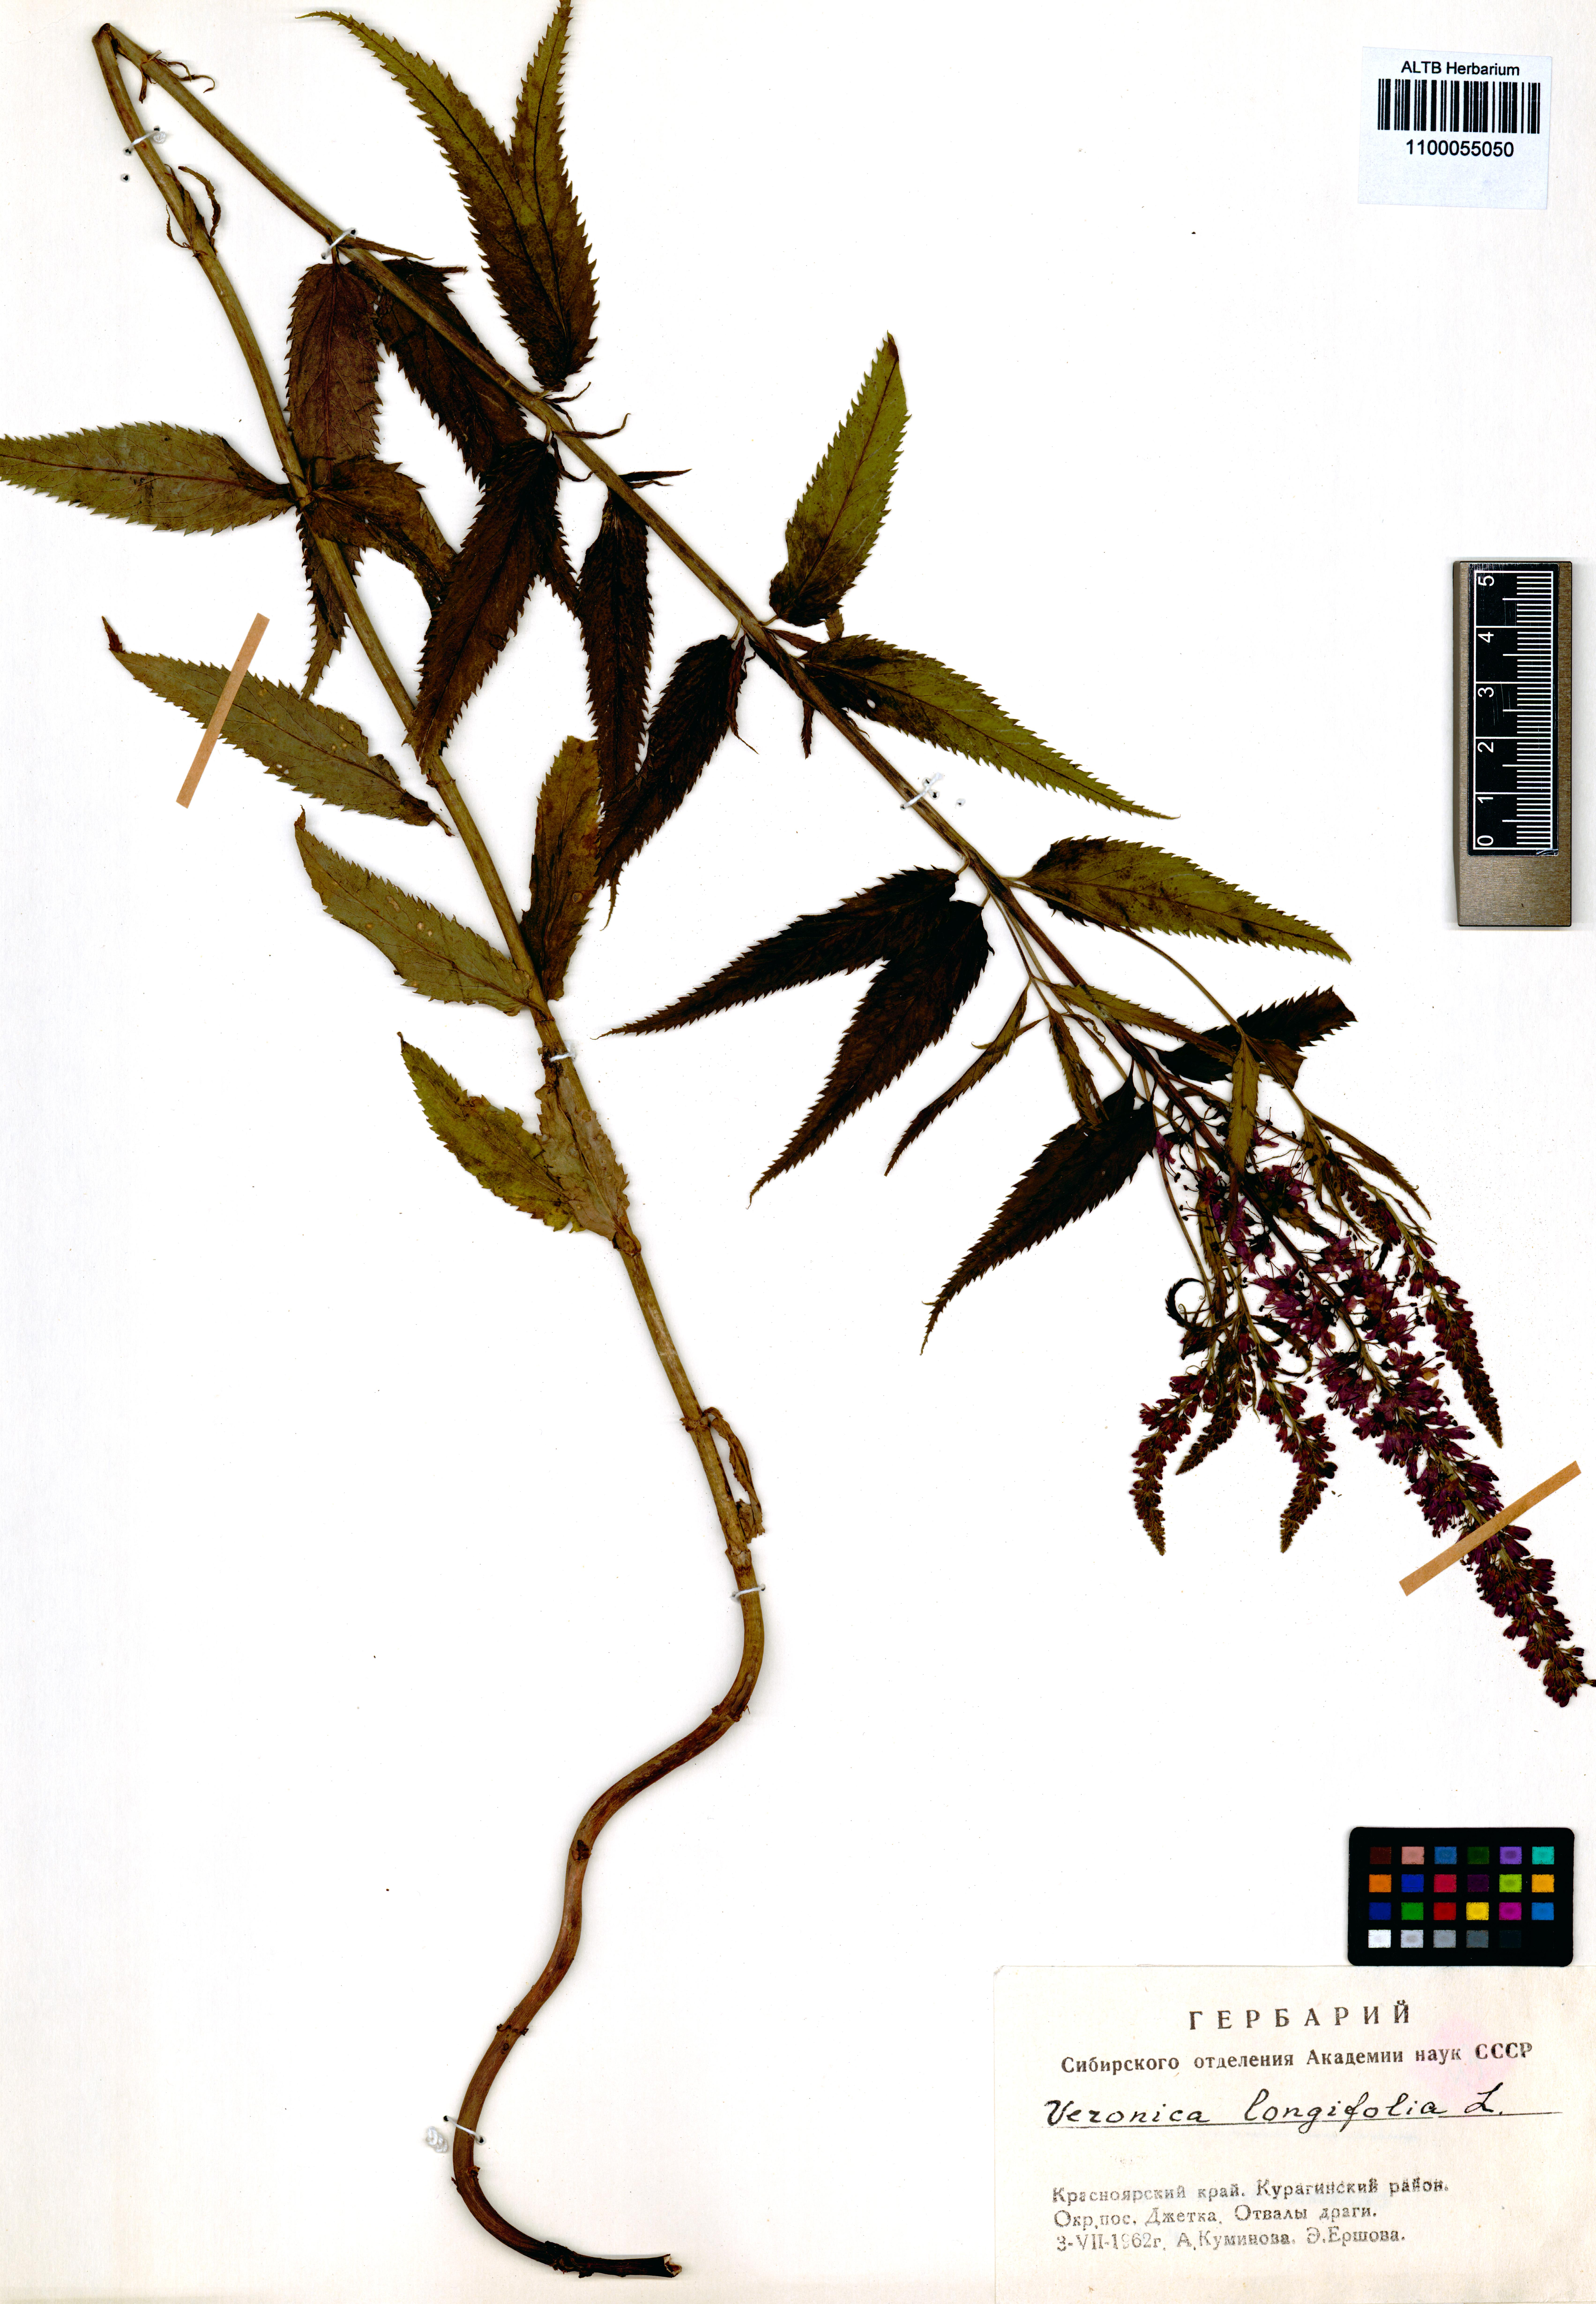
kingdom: Plantae
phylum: Tracheophyta
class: Magnoliopsida
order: Lamiales
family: Plantaginaceae
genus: Veronica
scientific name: Veronica longifolia
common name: Garden speedwell
